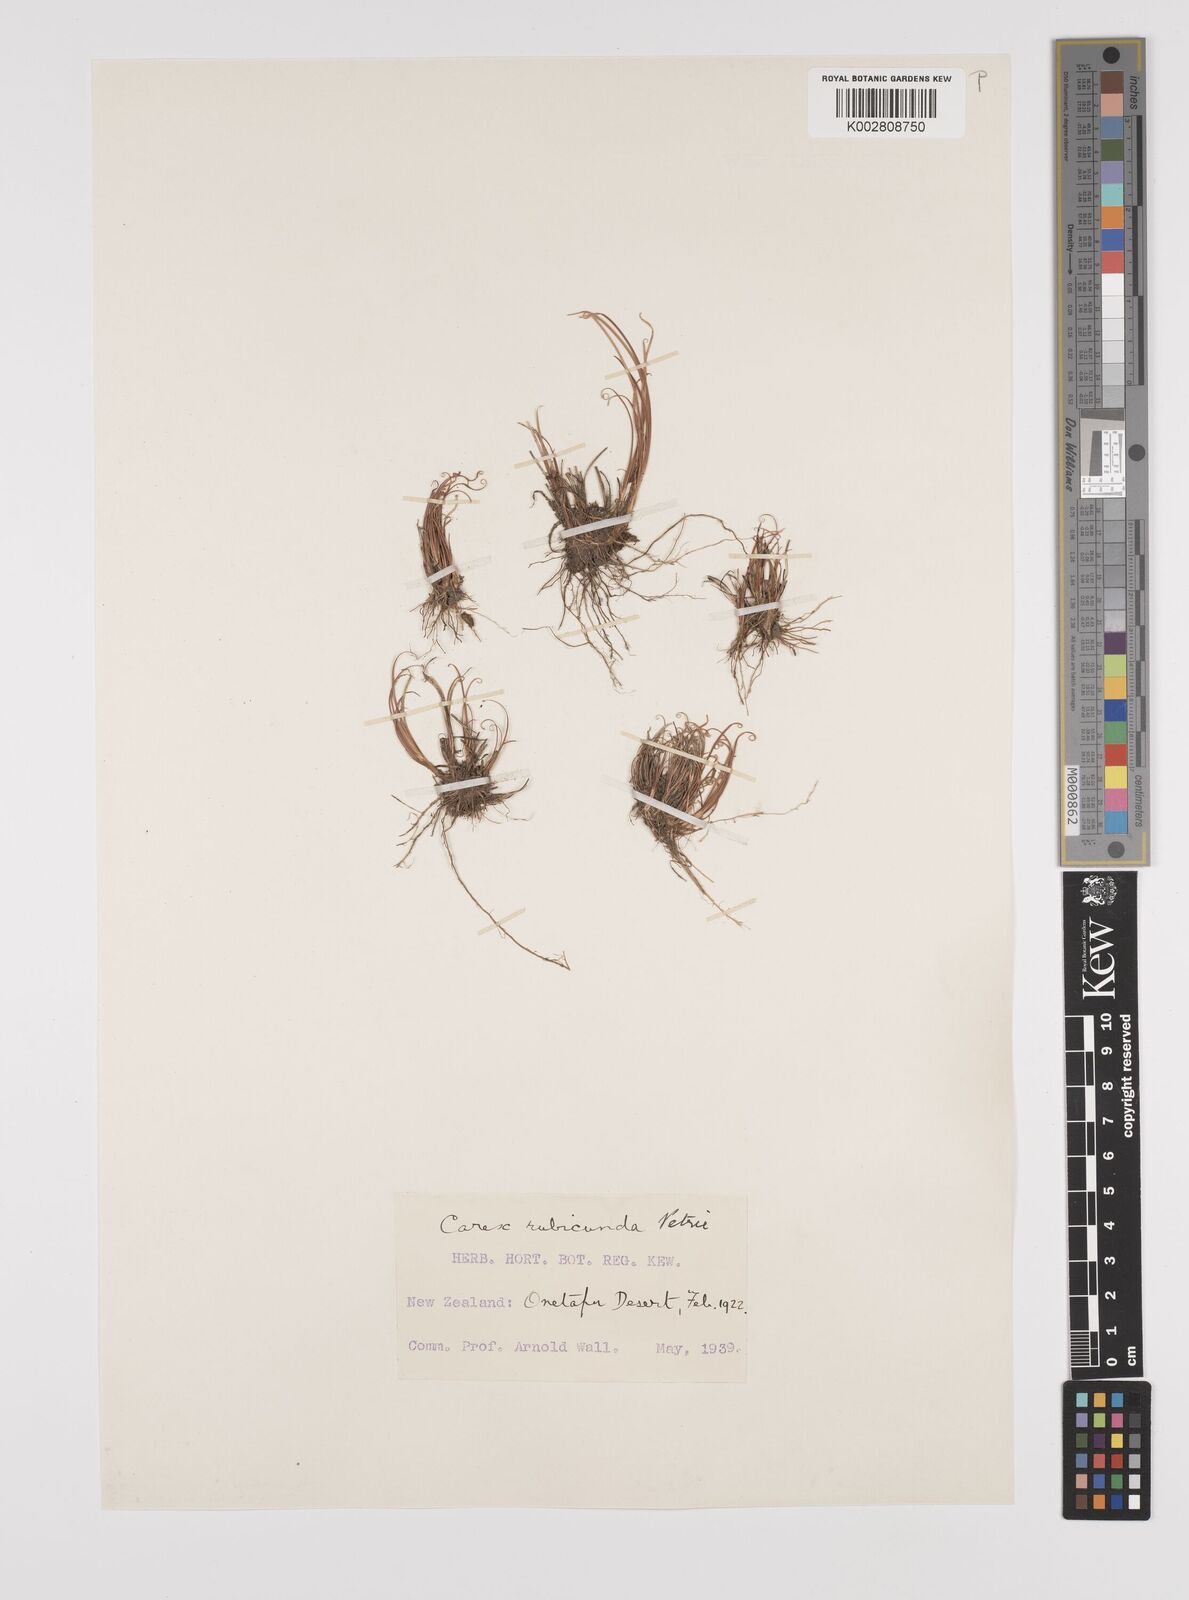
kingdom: Plantae
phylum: Tracheophyta
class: Liliopsida
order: Poales
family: Cyperaceae
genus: Carex
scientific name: Carex petriei
